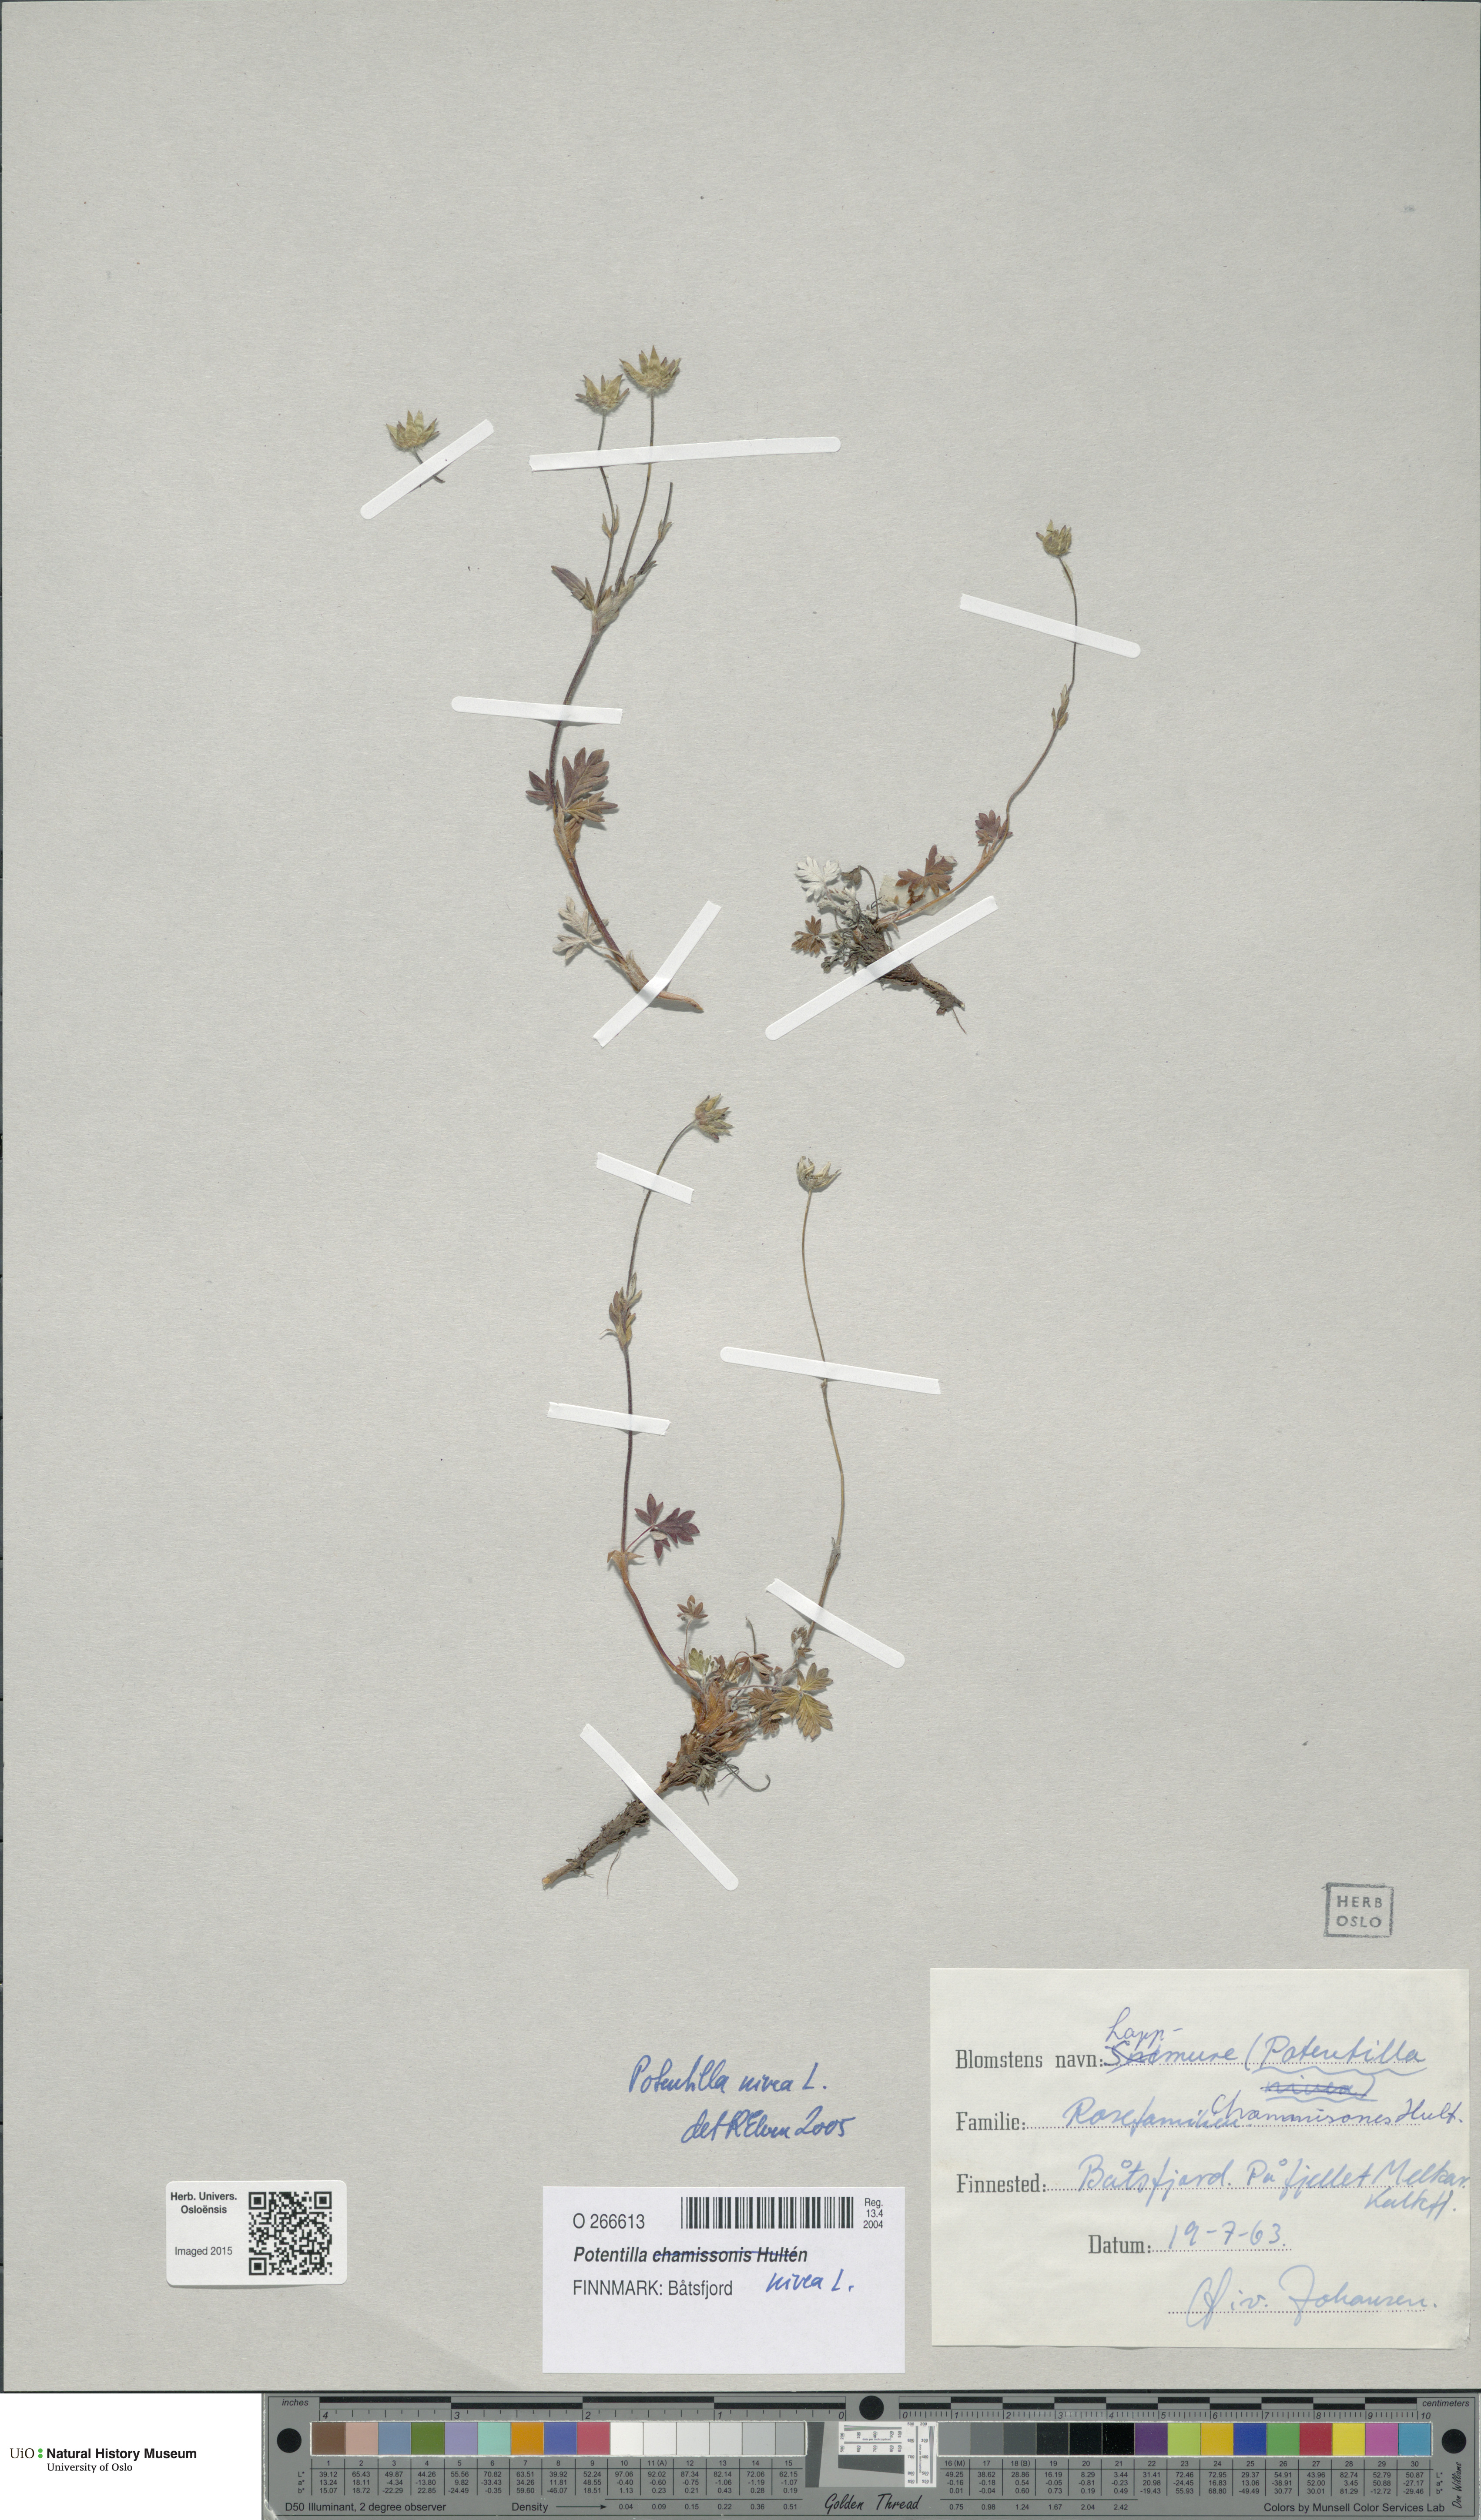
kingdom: Plantae
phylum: Tracheophyta
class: Magnoliopsida
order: Rosales
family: Rosaceae
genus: Potentilla
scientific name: Potentilla arenosa
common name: Bluff cinquefoil
